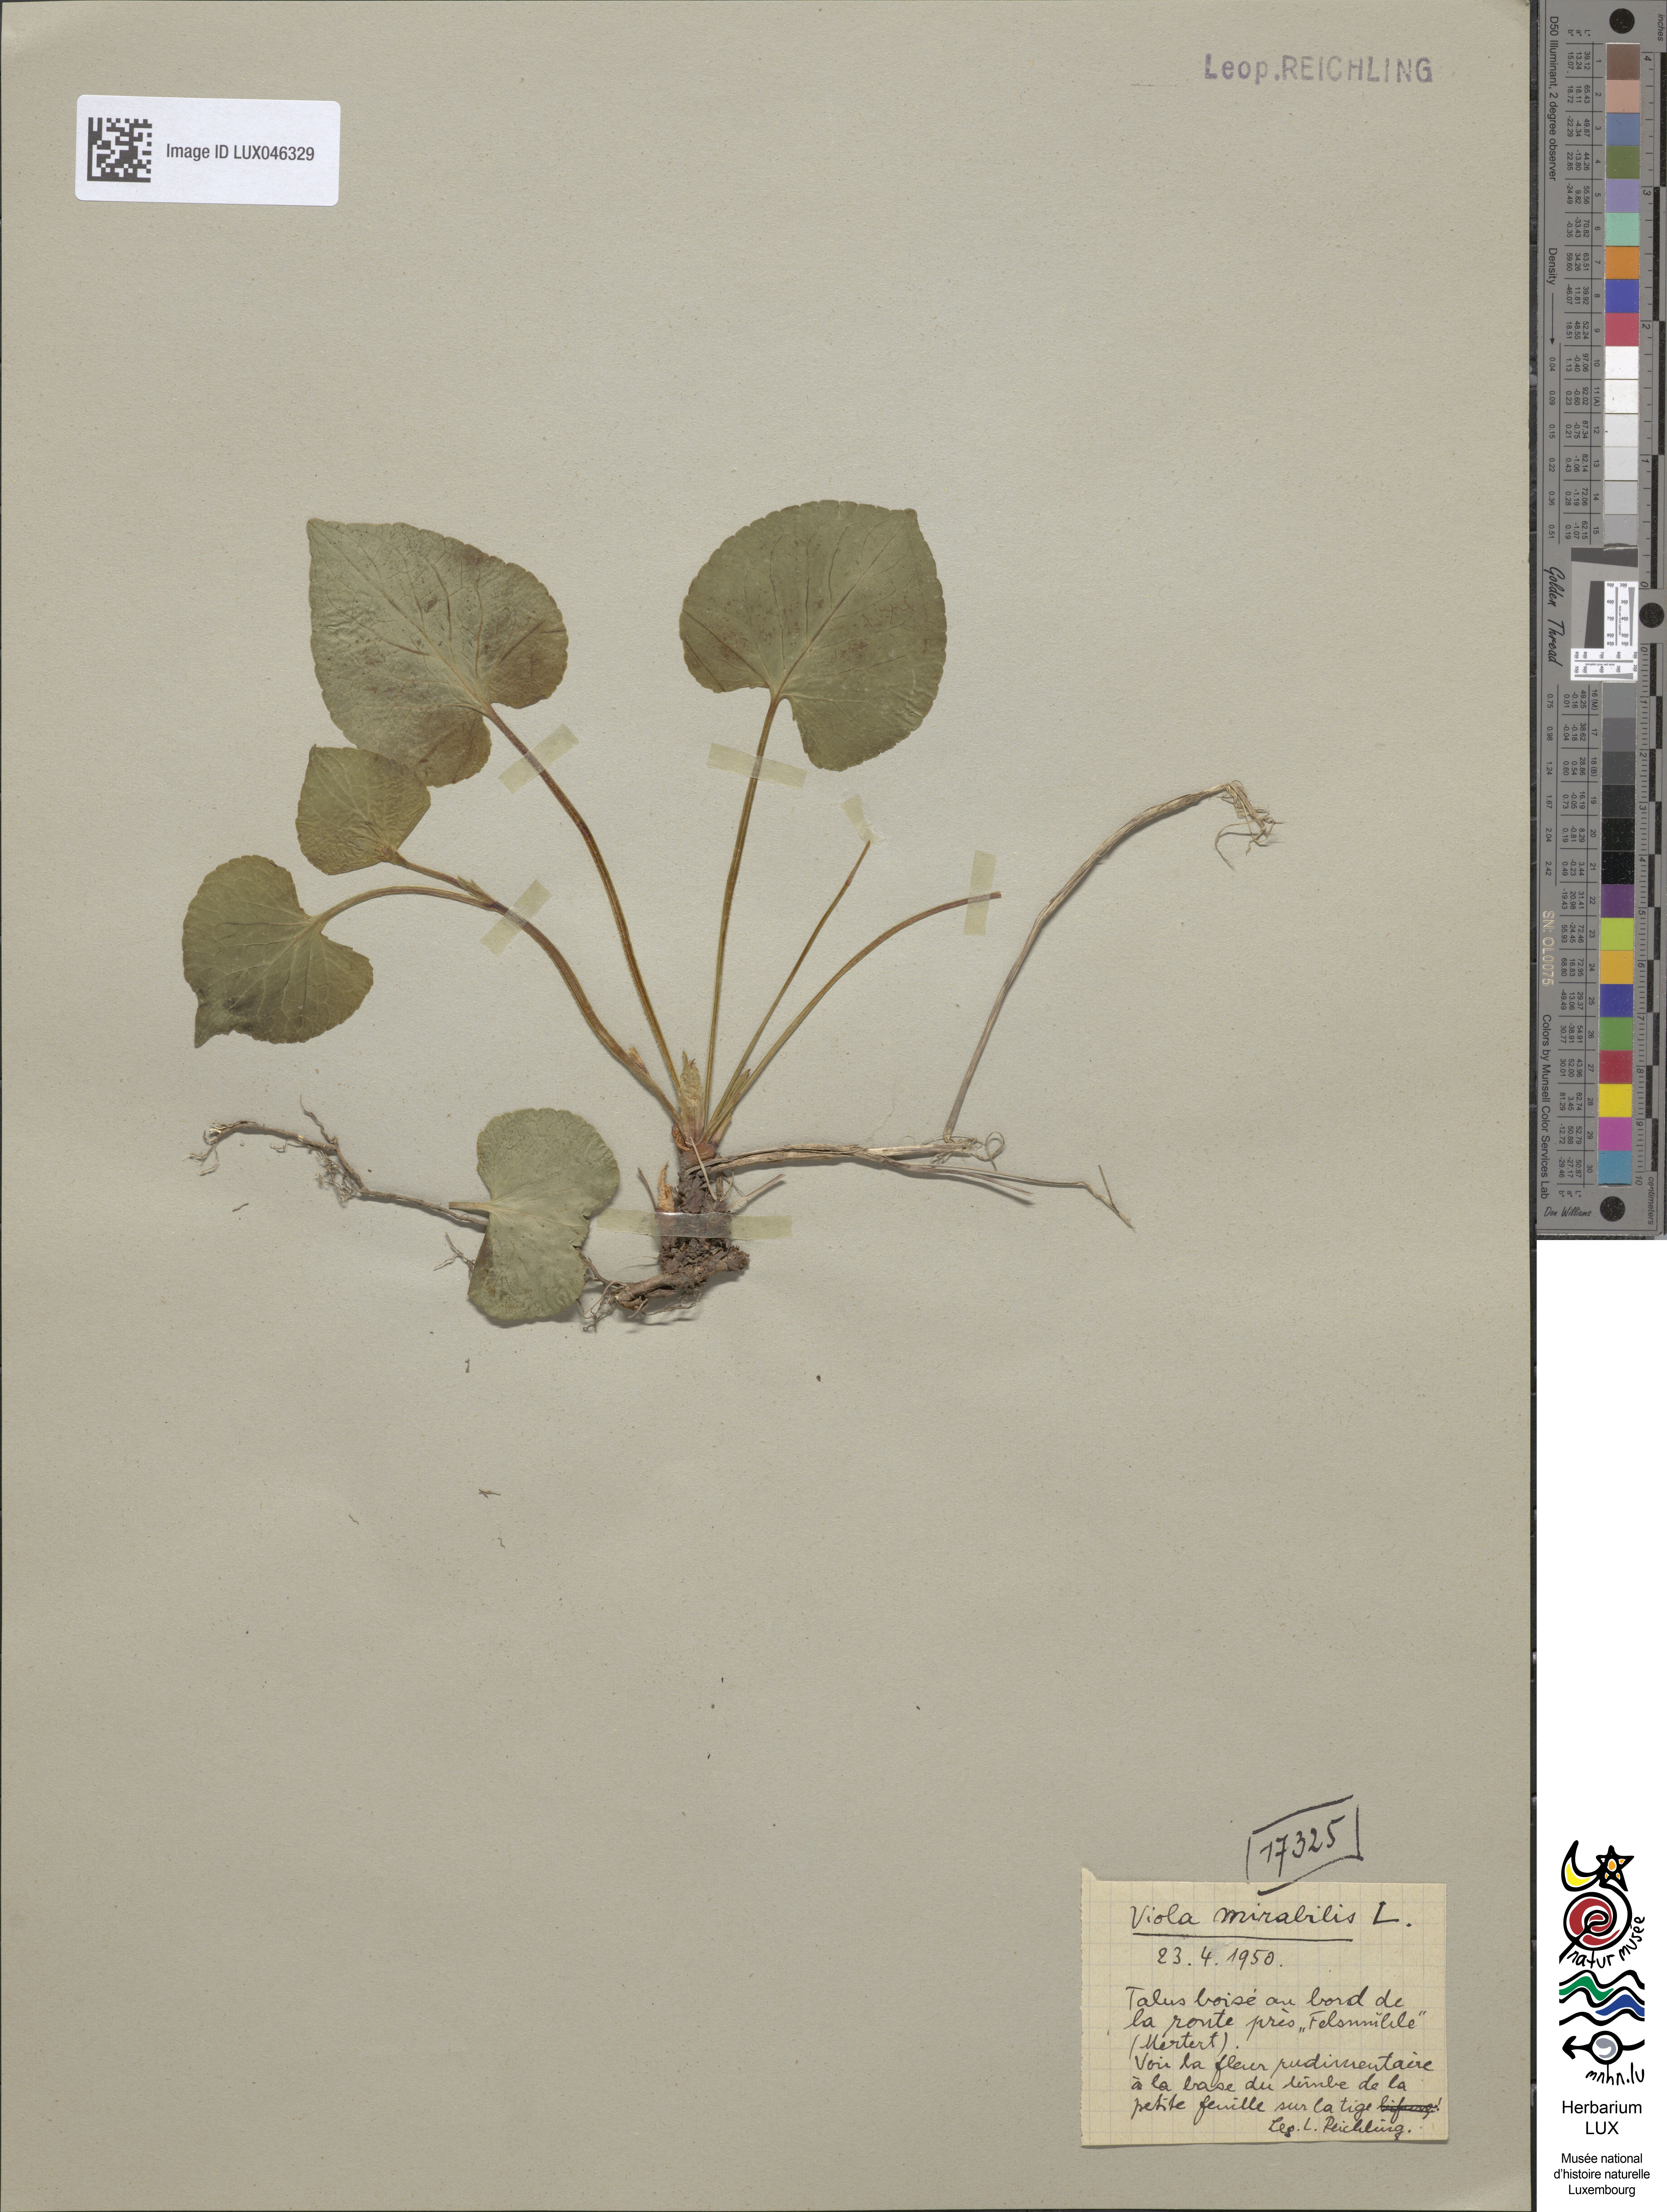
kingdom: Plantae
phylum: Tracheophyta
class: Magnoliopsida
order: Malpighiales
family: Violaceae
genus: Viola
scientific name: Viola mirabilis
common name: Wonder violet
